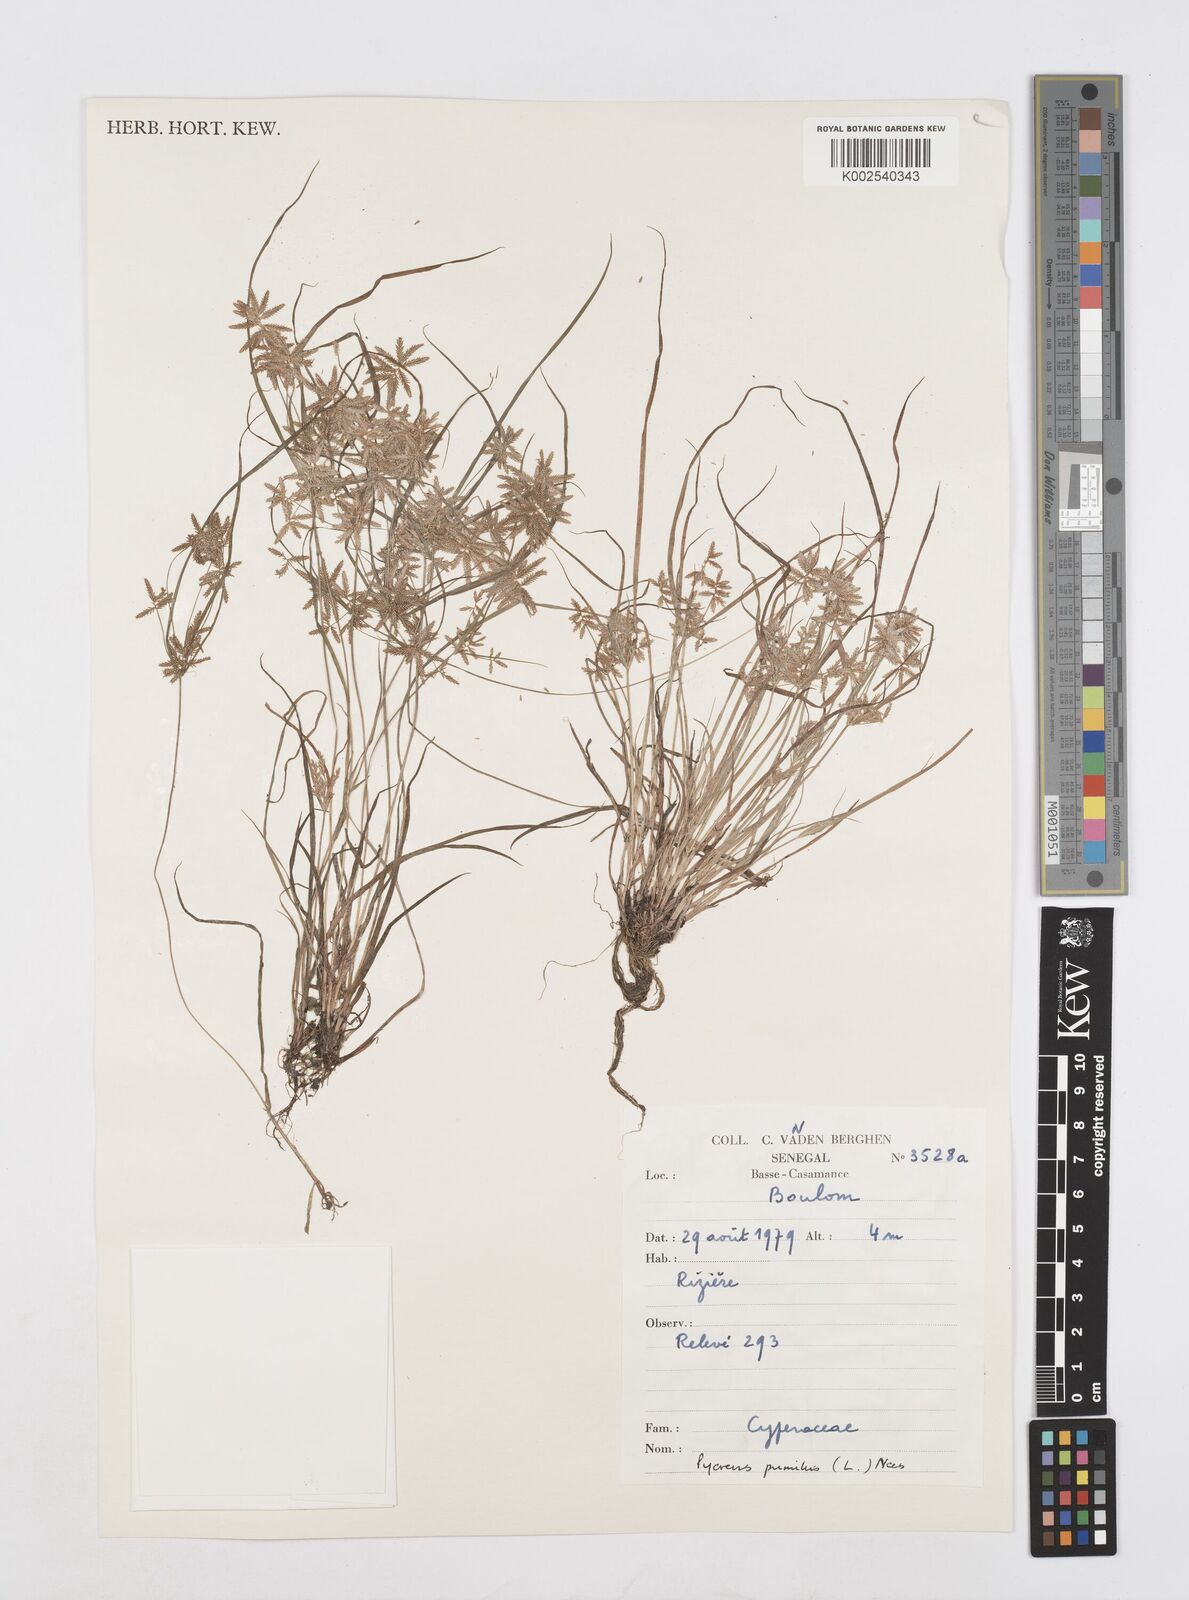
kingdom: Plantae
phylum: Tracheophyta
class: Liliopsida
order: Poales
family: Cyperaceae
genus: Cyperus
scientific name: Cyperus pumilus
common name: Low flatsedge
